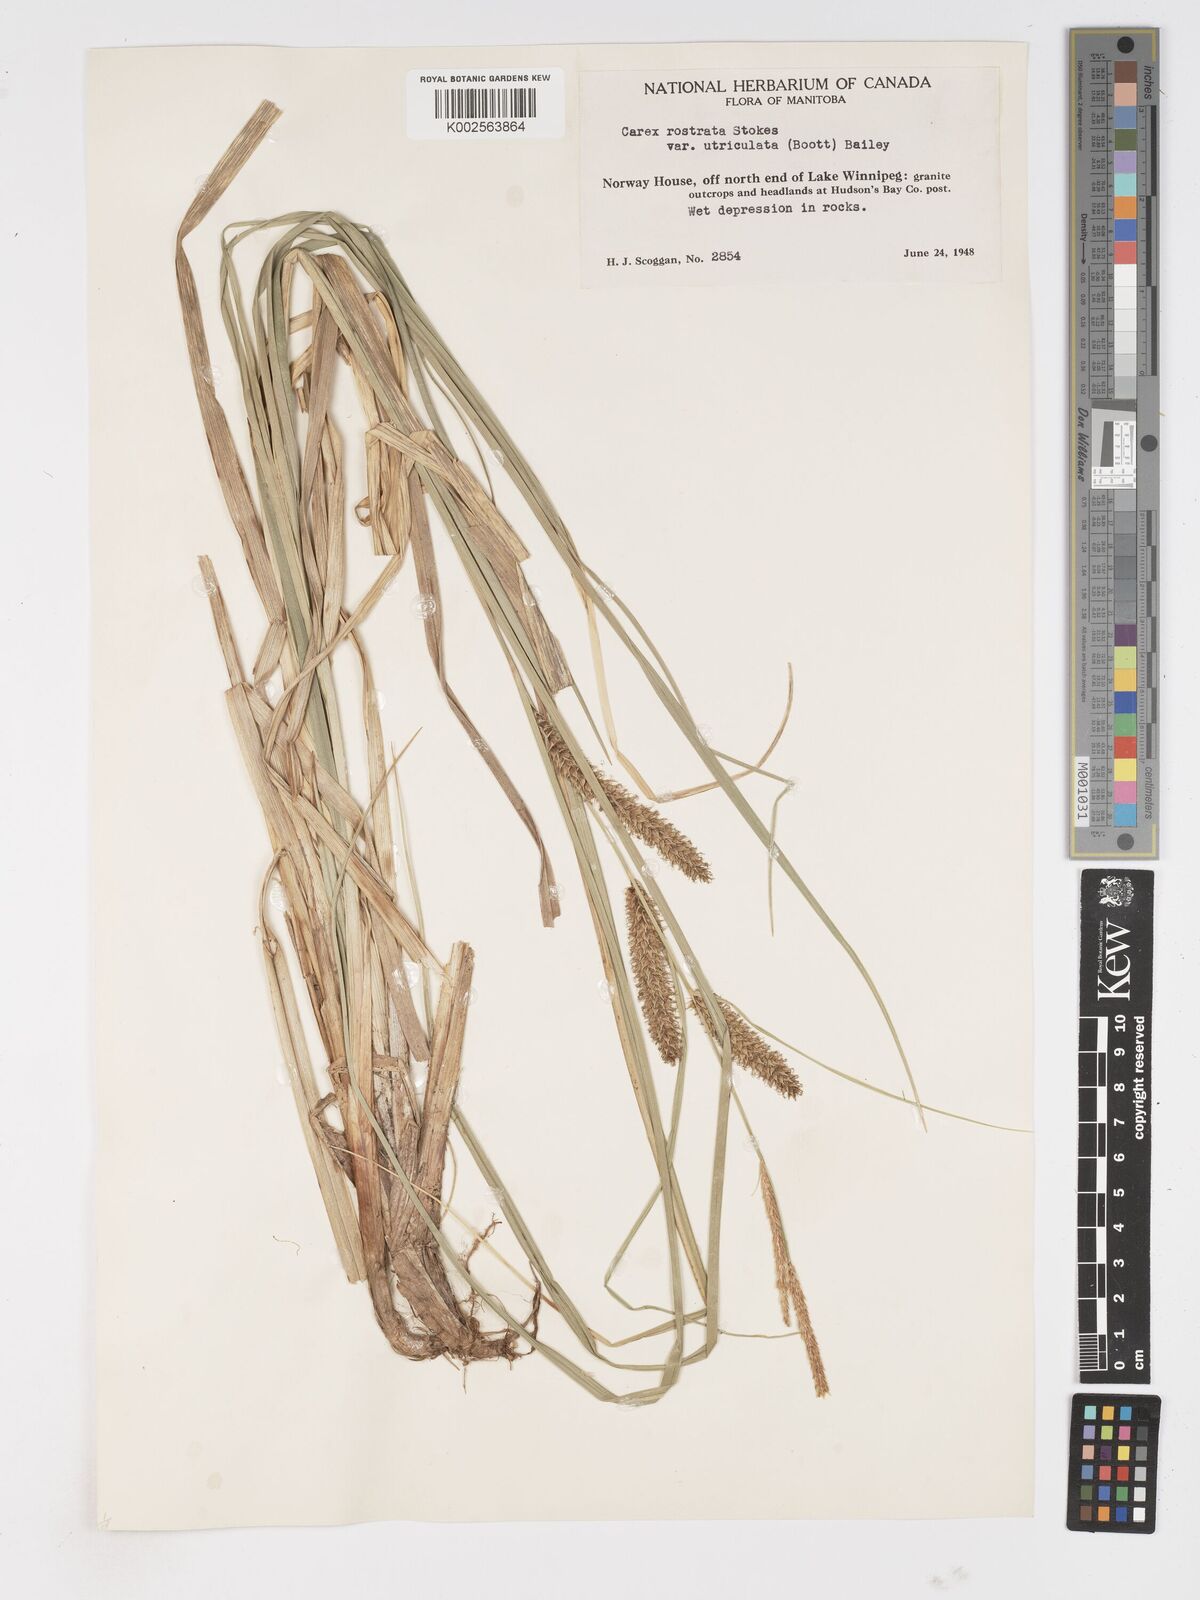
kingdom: Plantae
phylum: Tracheophyta
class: Liliopsida
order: Poales
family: Cyperaceae
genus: Carex
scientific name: Carex rostrata
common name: Bottle sedge
